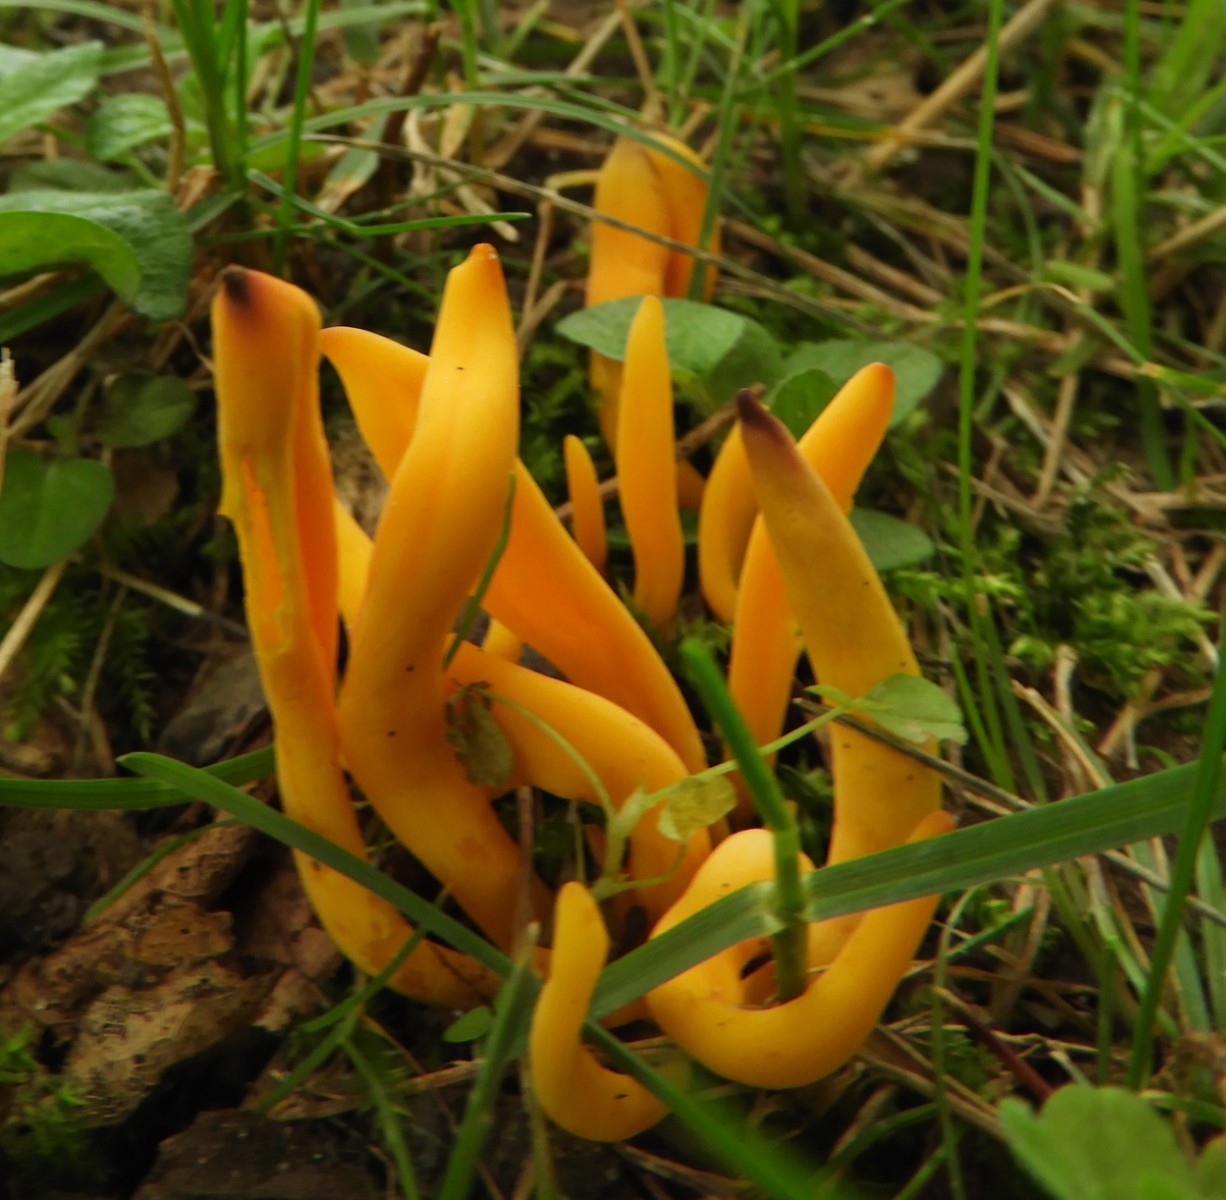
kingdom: Fungi
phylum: Basidiomycota
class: Agaricomycetes
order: Agaricales
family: Clavariaceae
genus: Clavulinopsis
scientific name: Clavulinopsis
